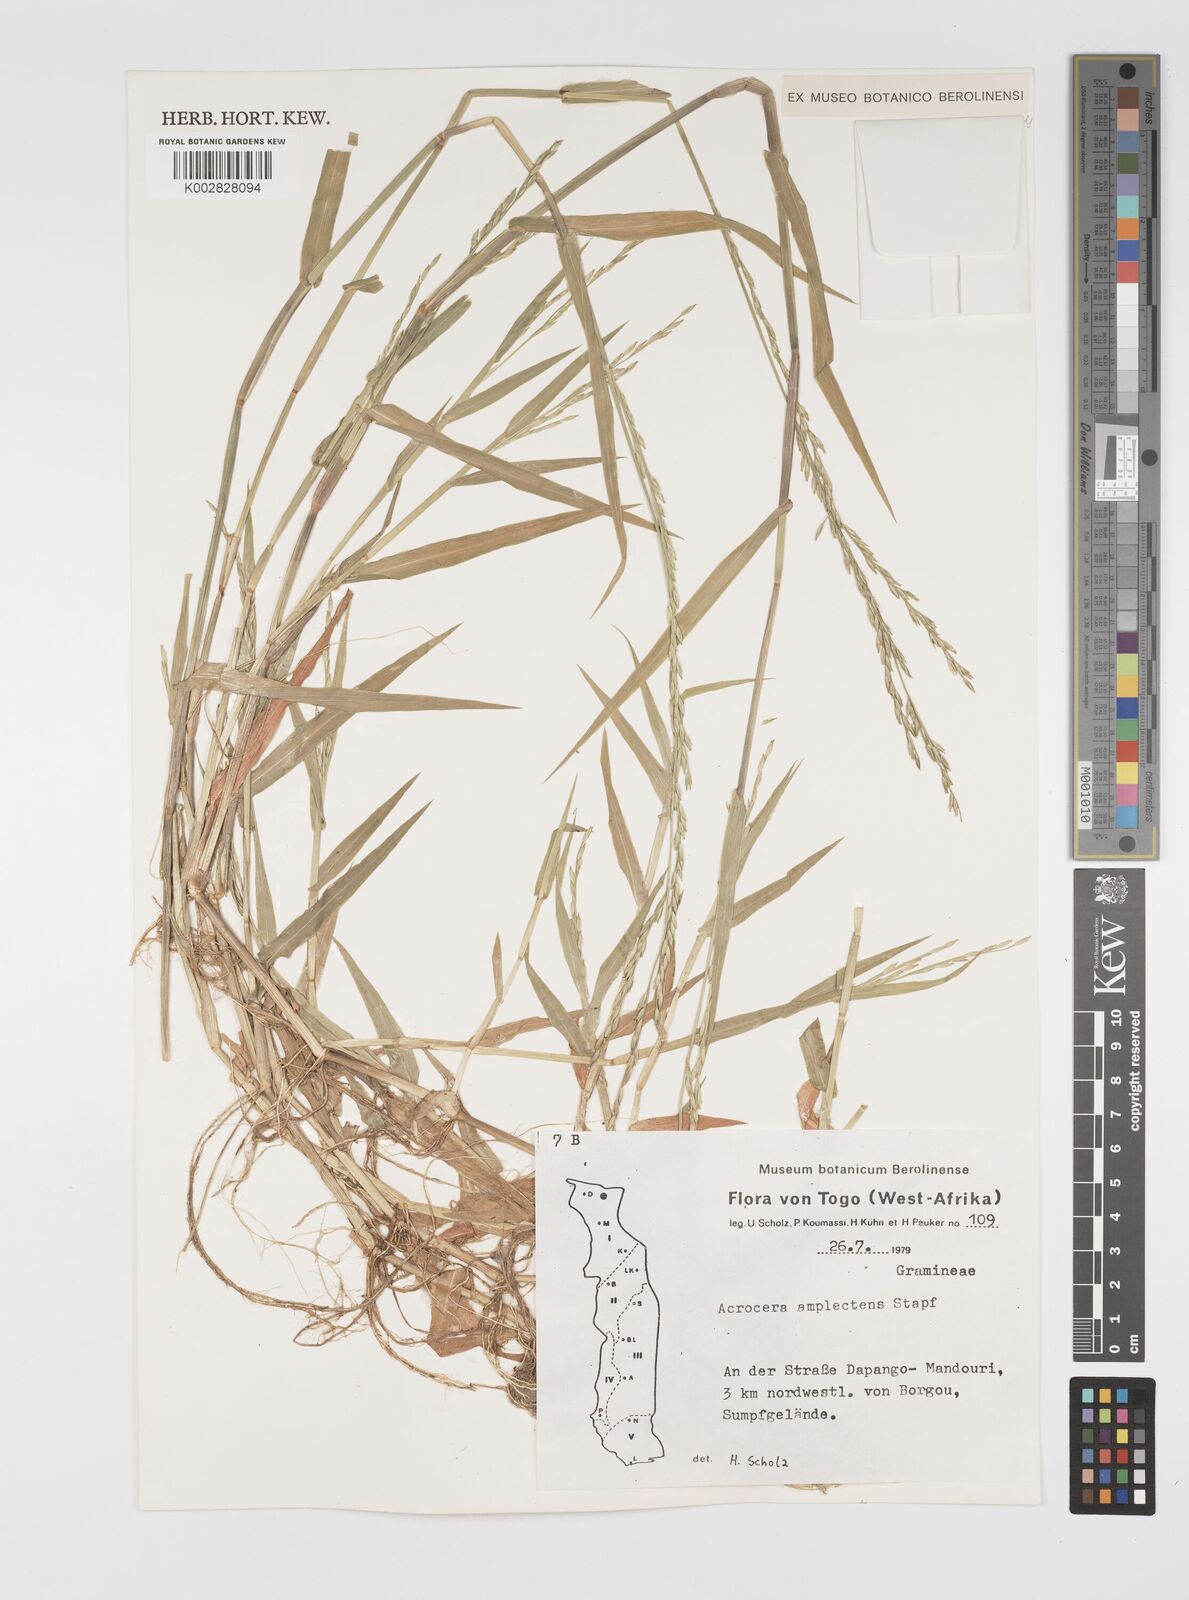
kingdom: Plantae
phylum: Tracheophyta
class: Liliopsida
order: Poales
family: Poaceae
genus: Acroceras
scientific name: Acroceras amplectens
